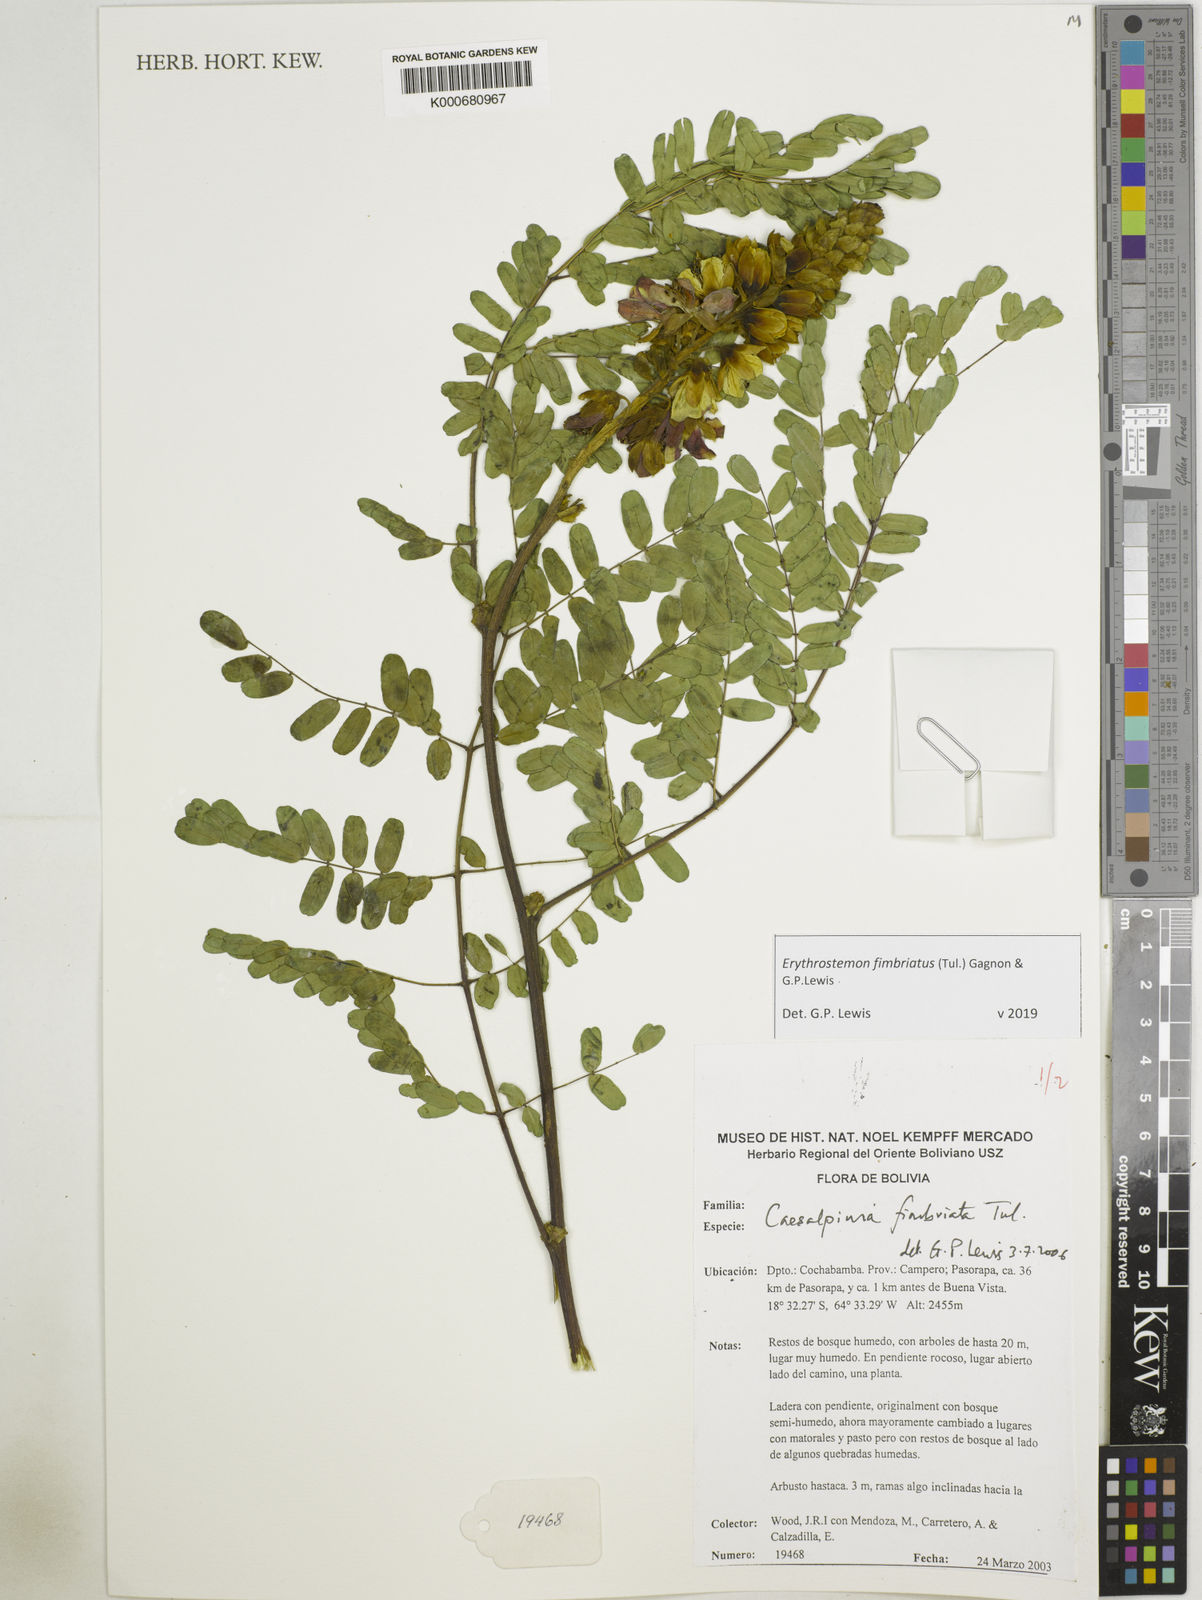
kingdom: Plantae
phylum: Tracheophyta
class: Magnoliopsida
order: Fabales
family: Fabaceae
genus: Erythrostemon
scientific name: Erythrostemon fimbriatus
